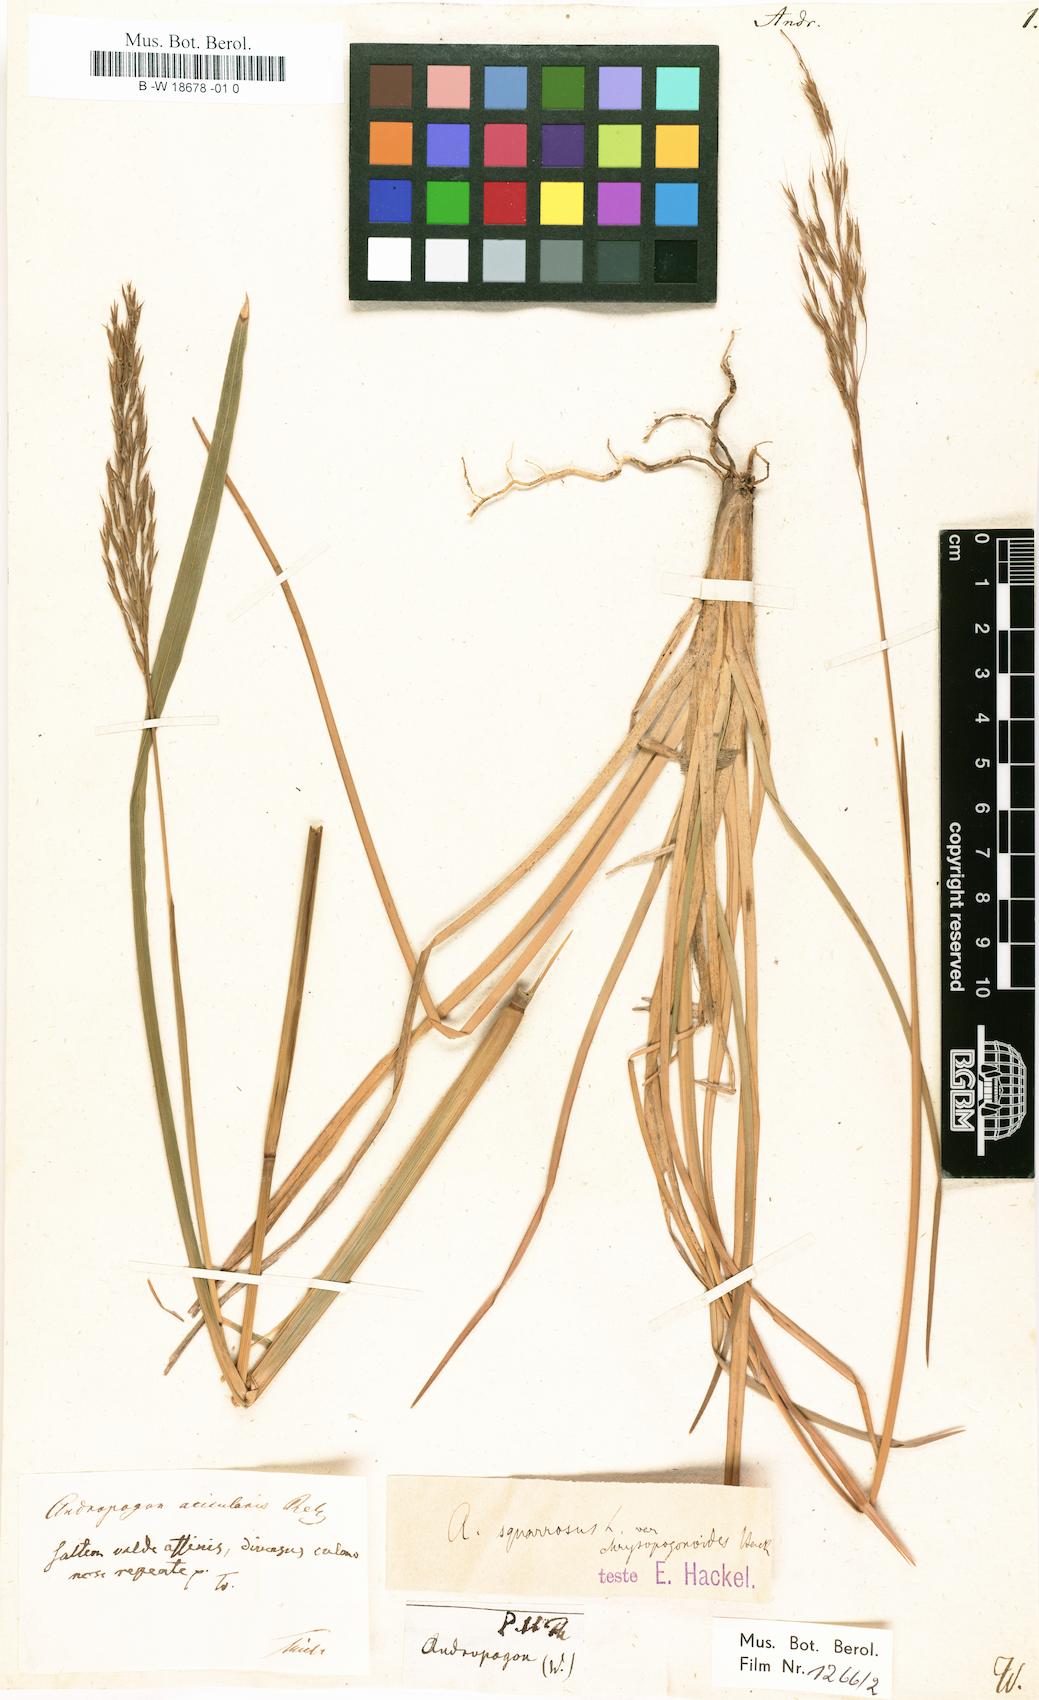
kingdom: Plantae
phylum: Tracheophyta
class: Liliopsida
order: Poales
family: Poaceae
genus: Andropogon
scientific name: Andropogon
